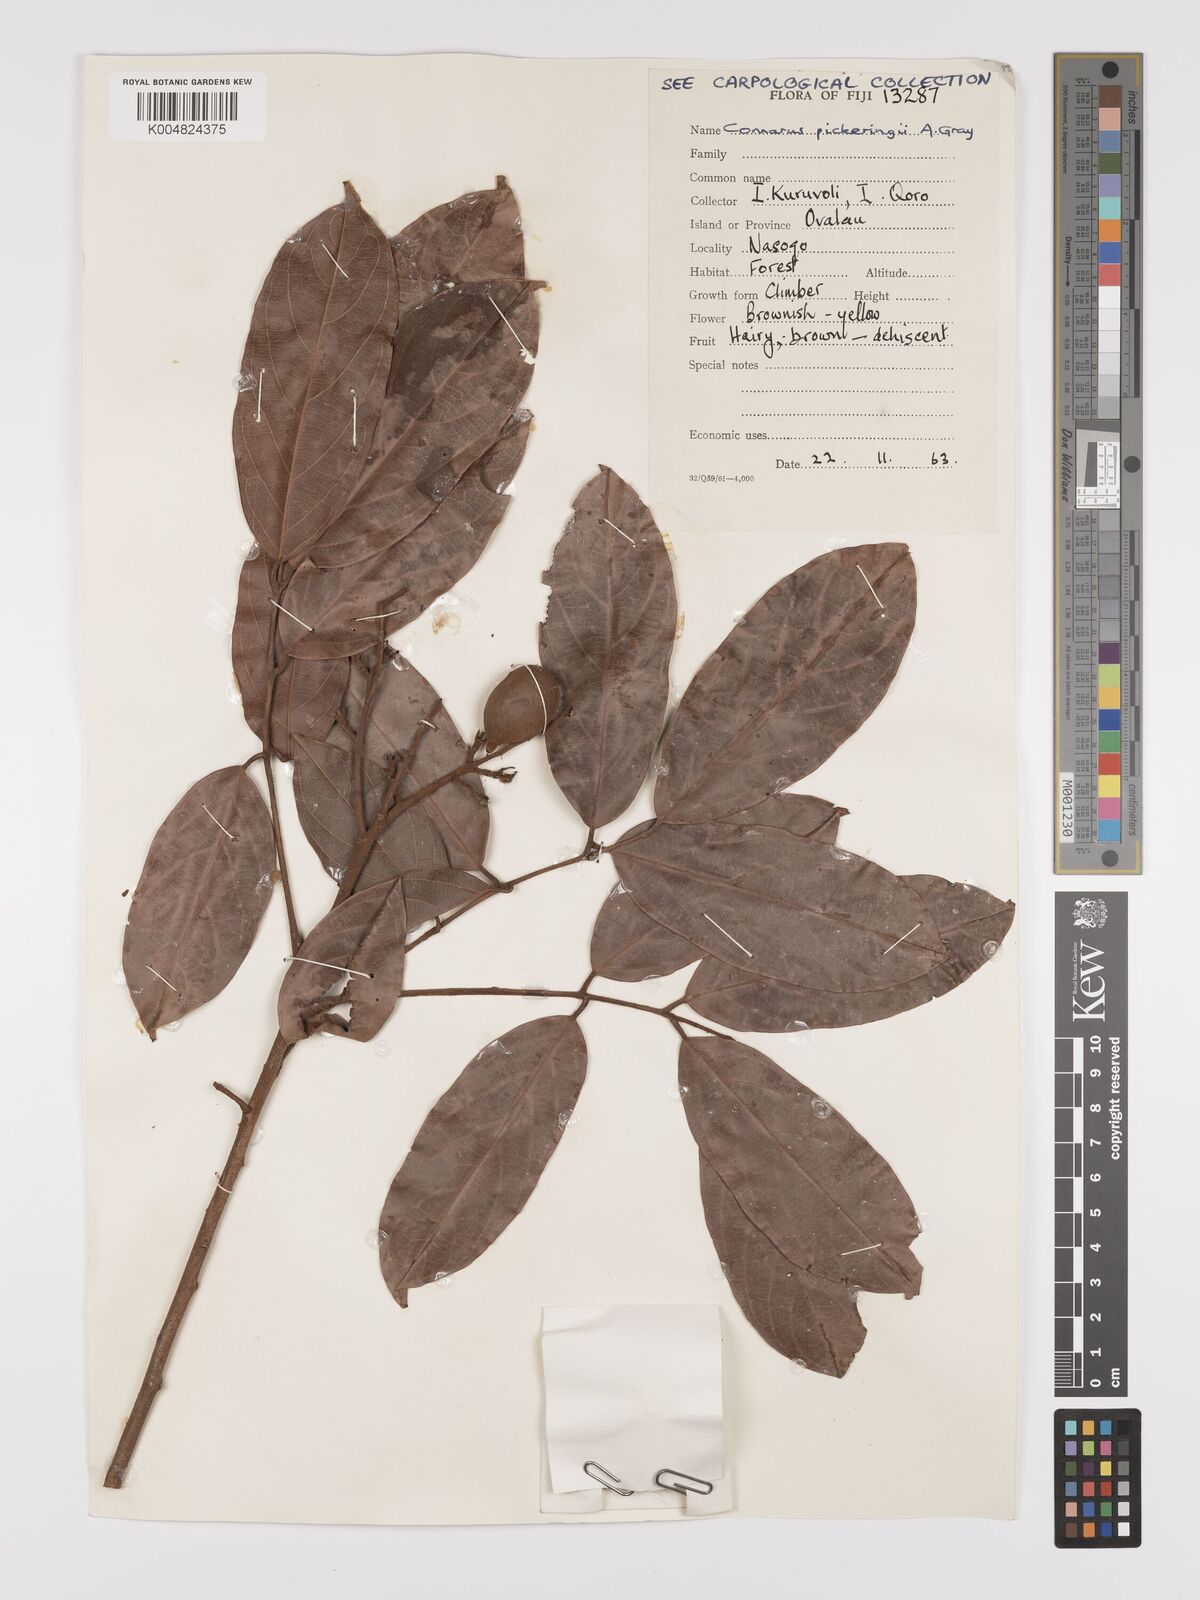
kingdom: Plantae
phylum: Tracheophyta
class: Magnoliopsida
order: Oxalidales
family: Connaraceae
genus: Connarus
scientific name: Connarus pickeringii
